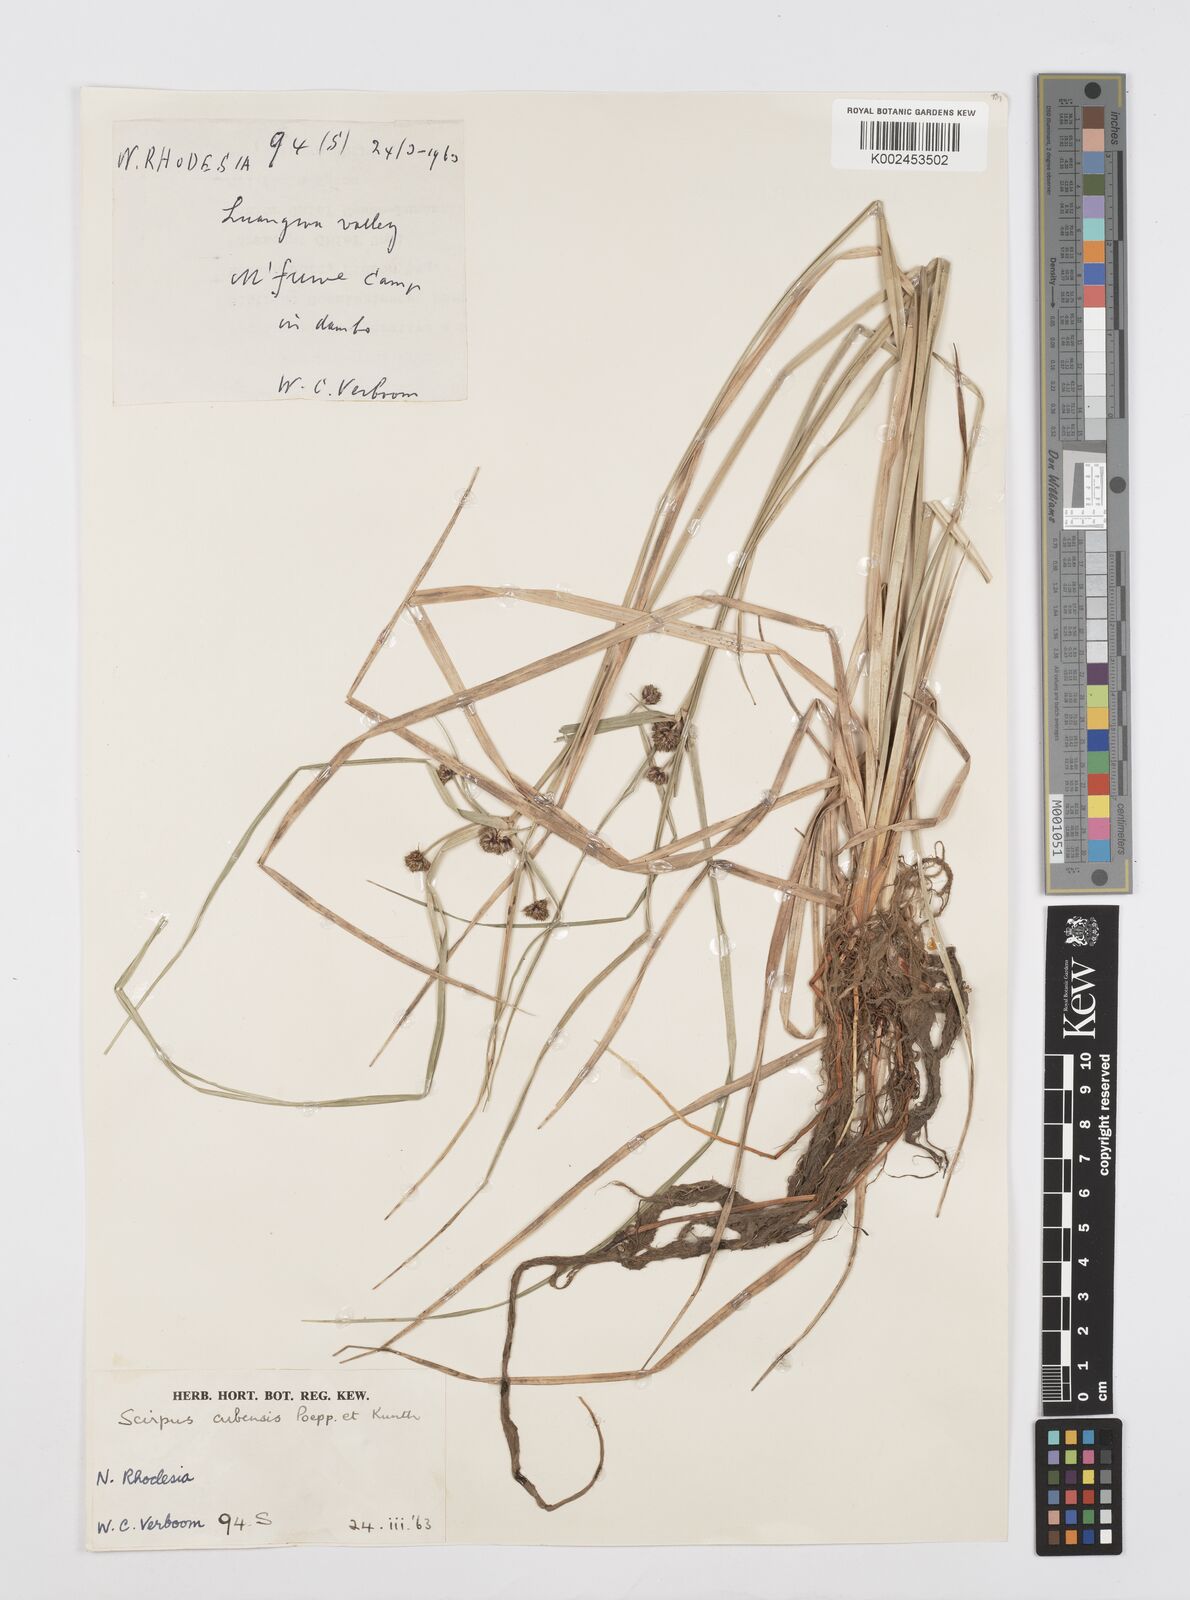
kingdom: Plantae
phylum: Tracheophyta
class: Liliopsida
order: Poales
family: Cyperaceae
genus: Cyperus
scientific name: Cyperus elegans
